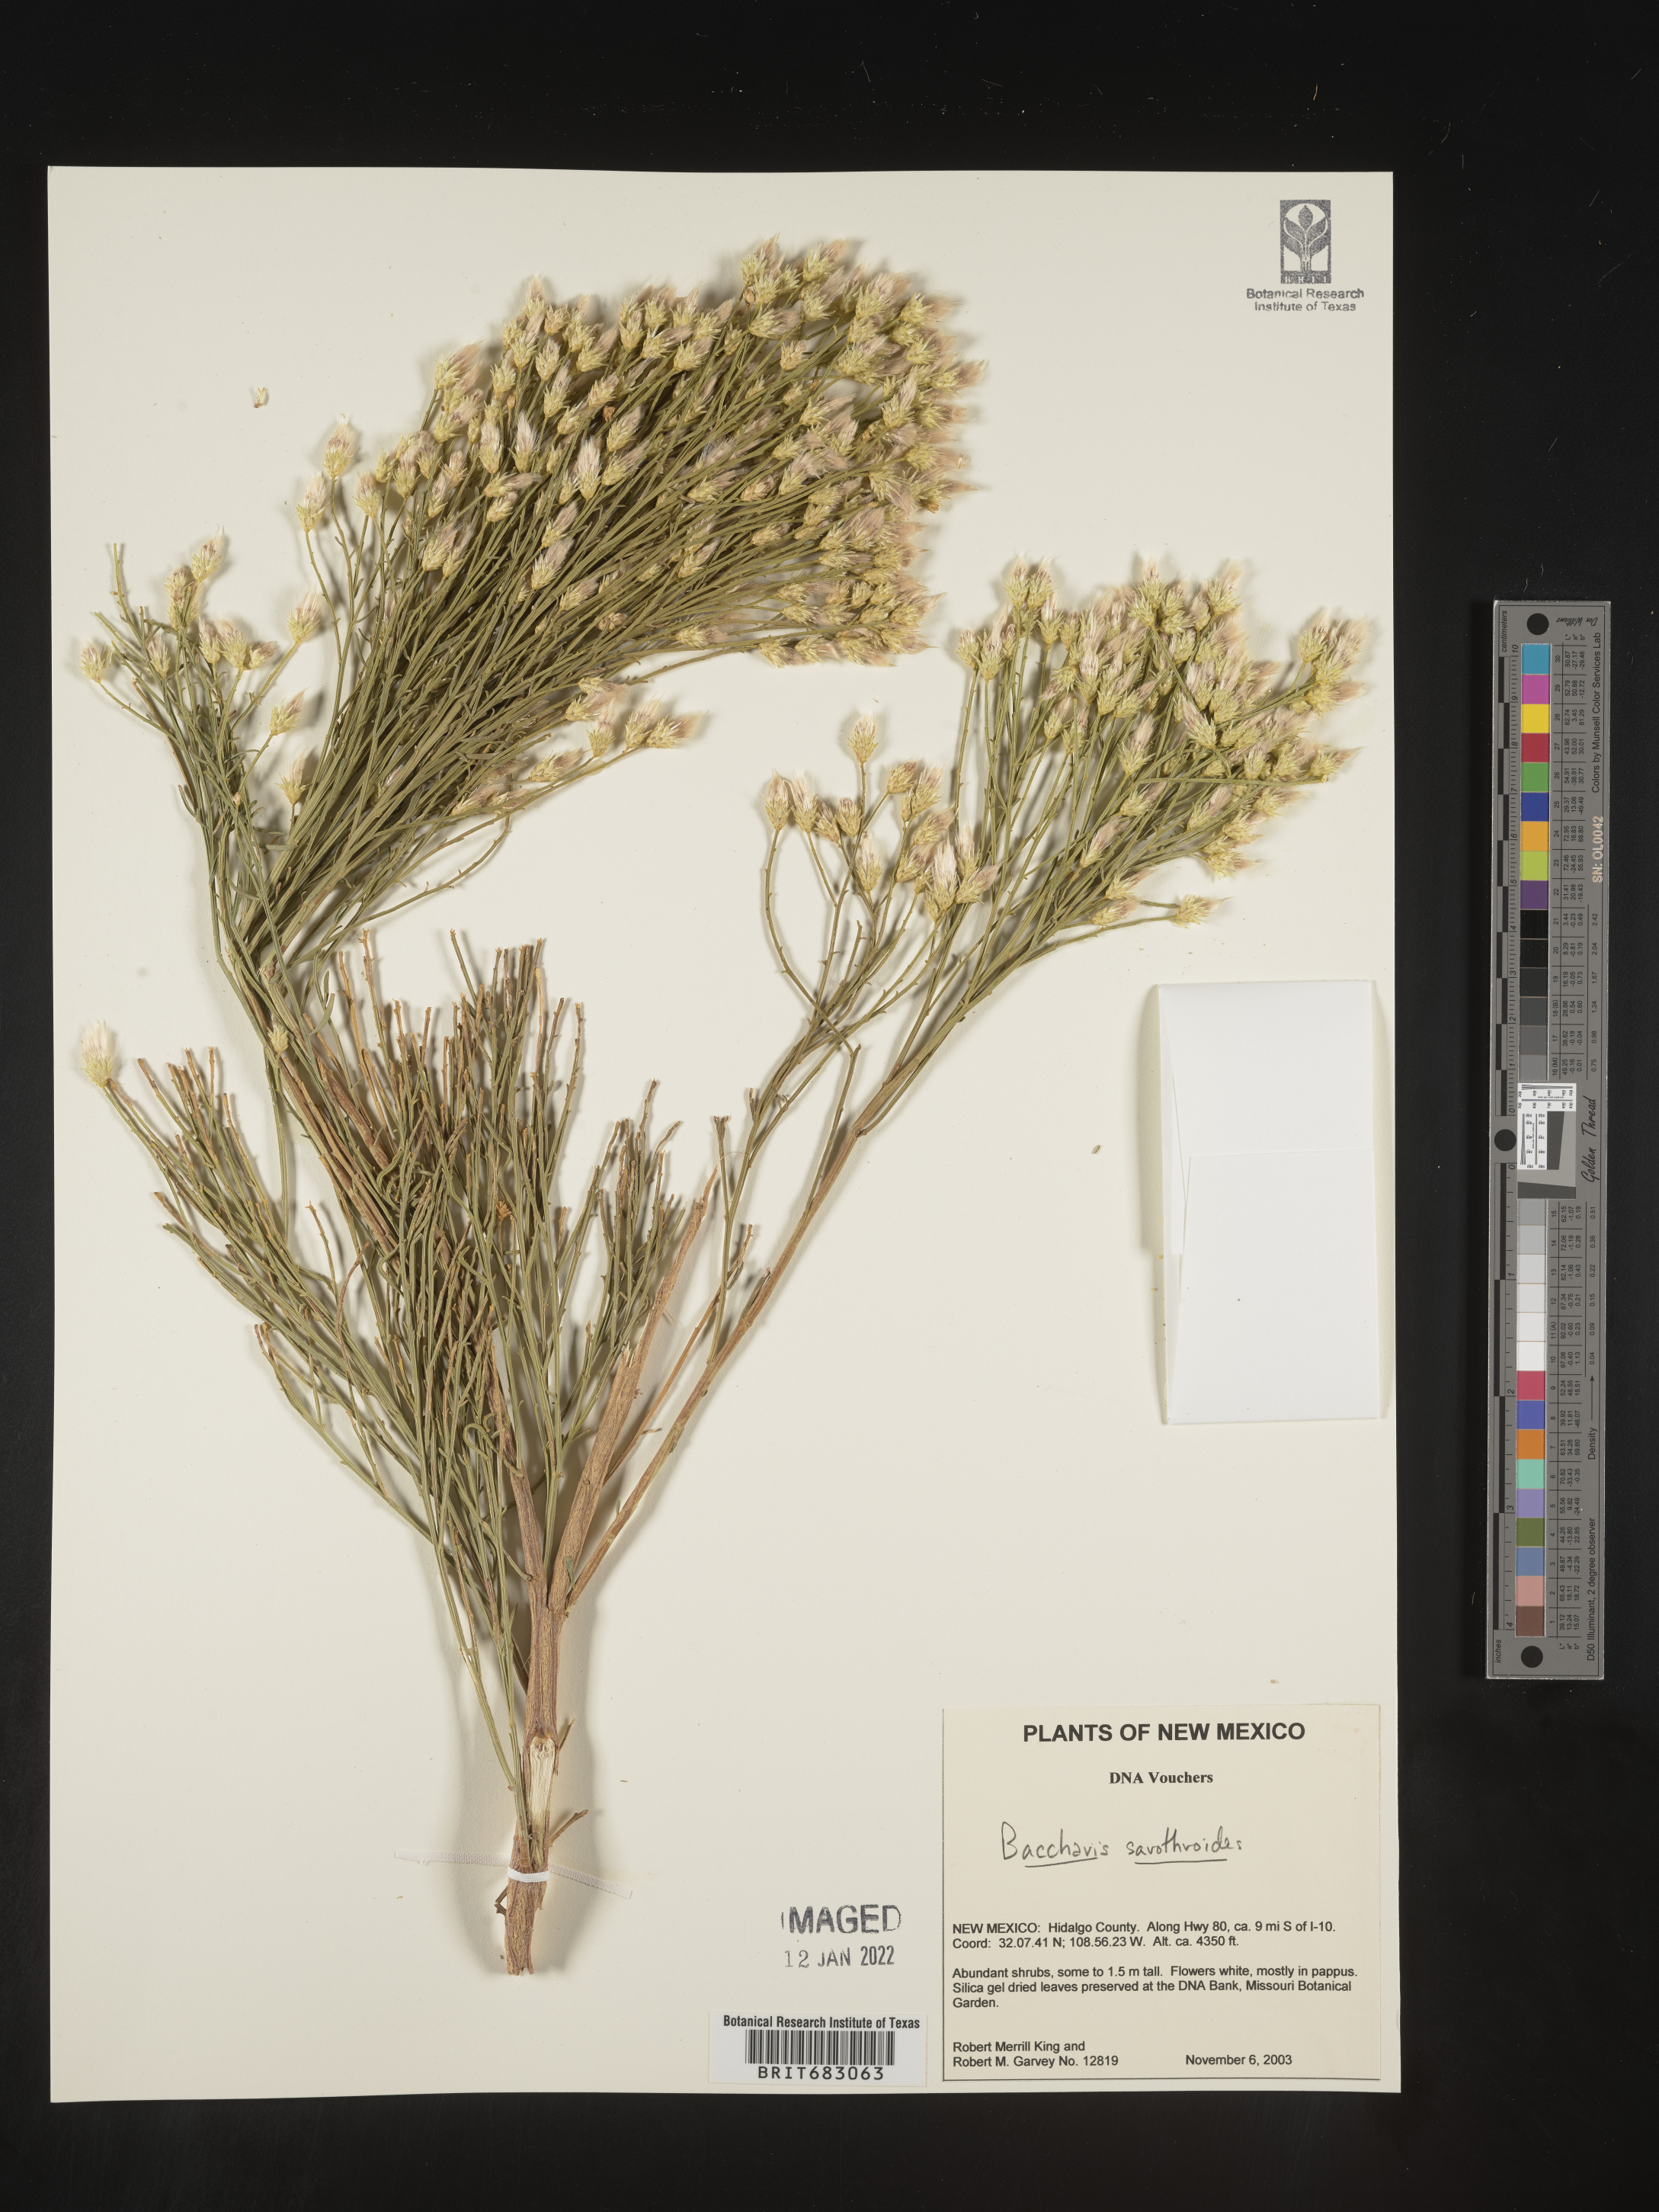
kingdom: Plantae
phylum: Tracheophyta
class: Magnoliopsida
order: Asterales
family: Asteraceae
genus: Baccharis
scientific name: Baccharis sarothroides
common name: Desert-broom
